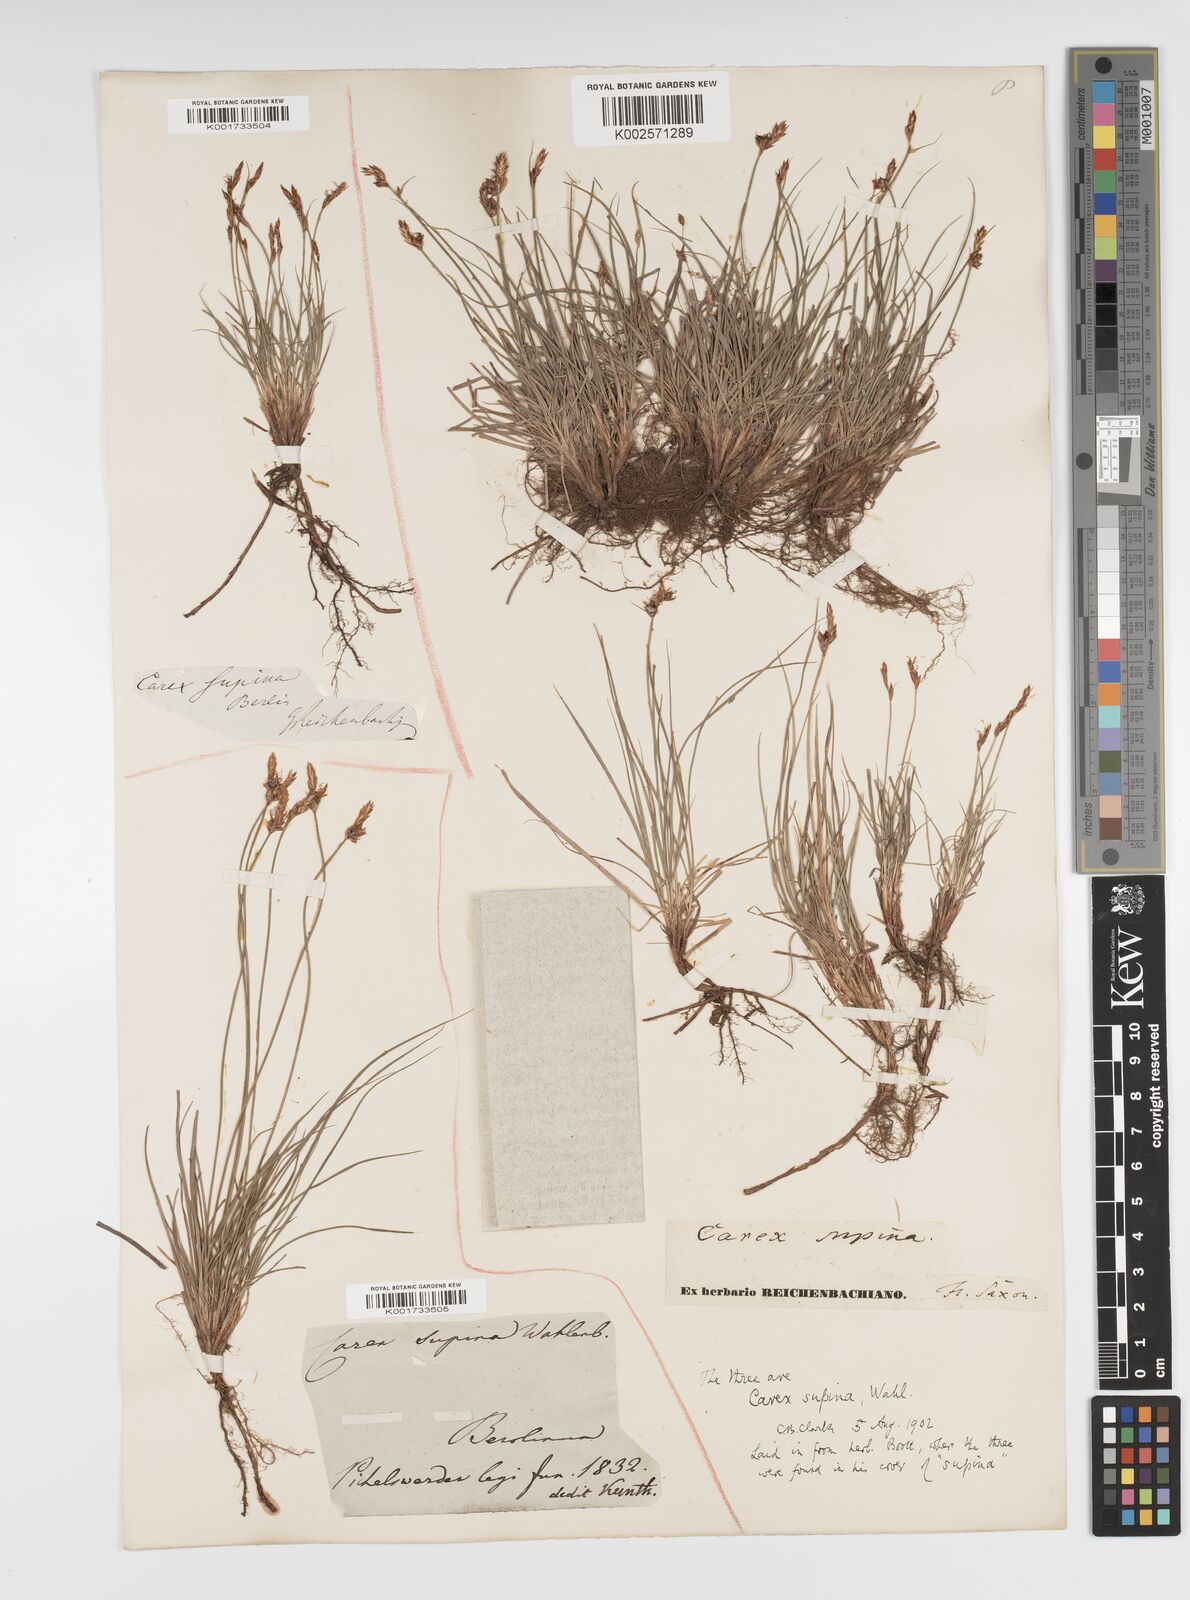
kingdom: Plantae
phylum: Tracheophyta
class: Liliopsida
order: Poales
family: Cyperaceae
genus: Carex
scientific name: Carex supina
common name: Lying-back sedge
